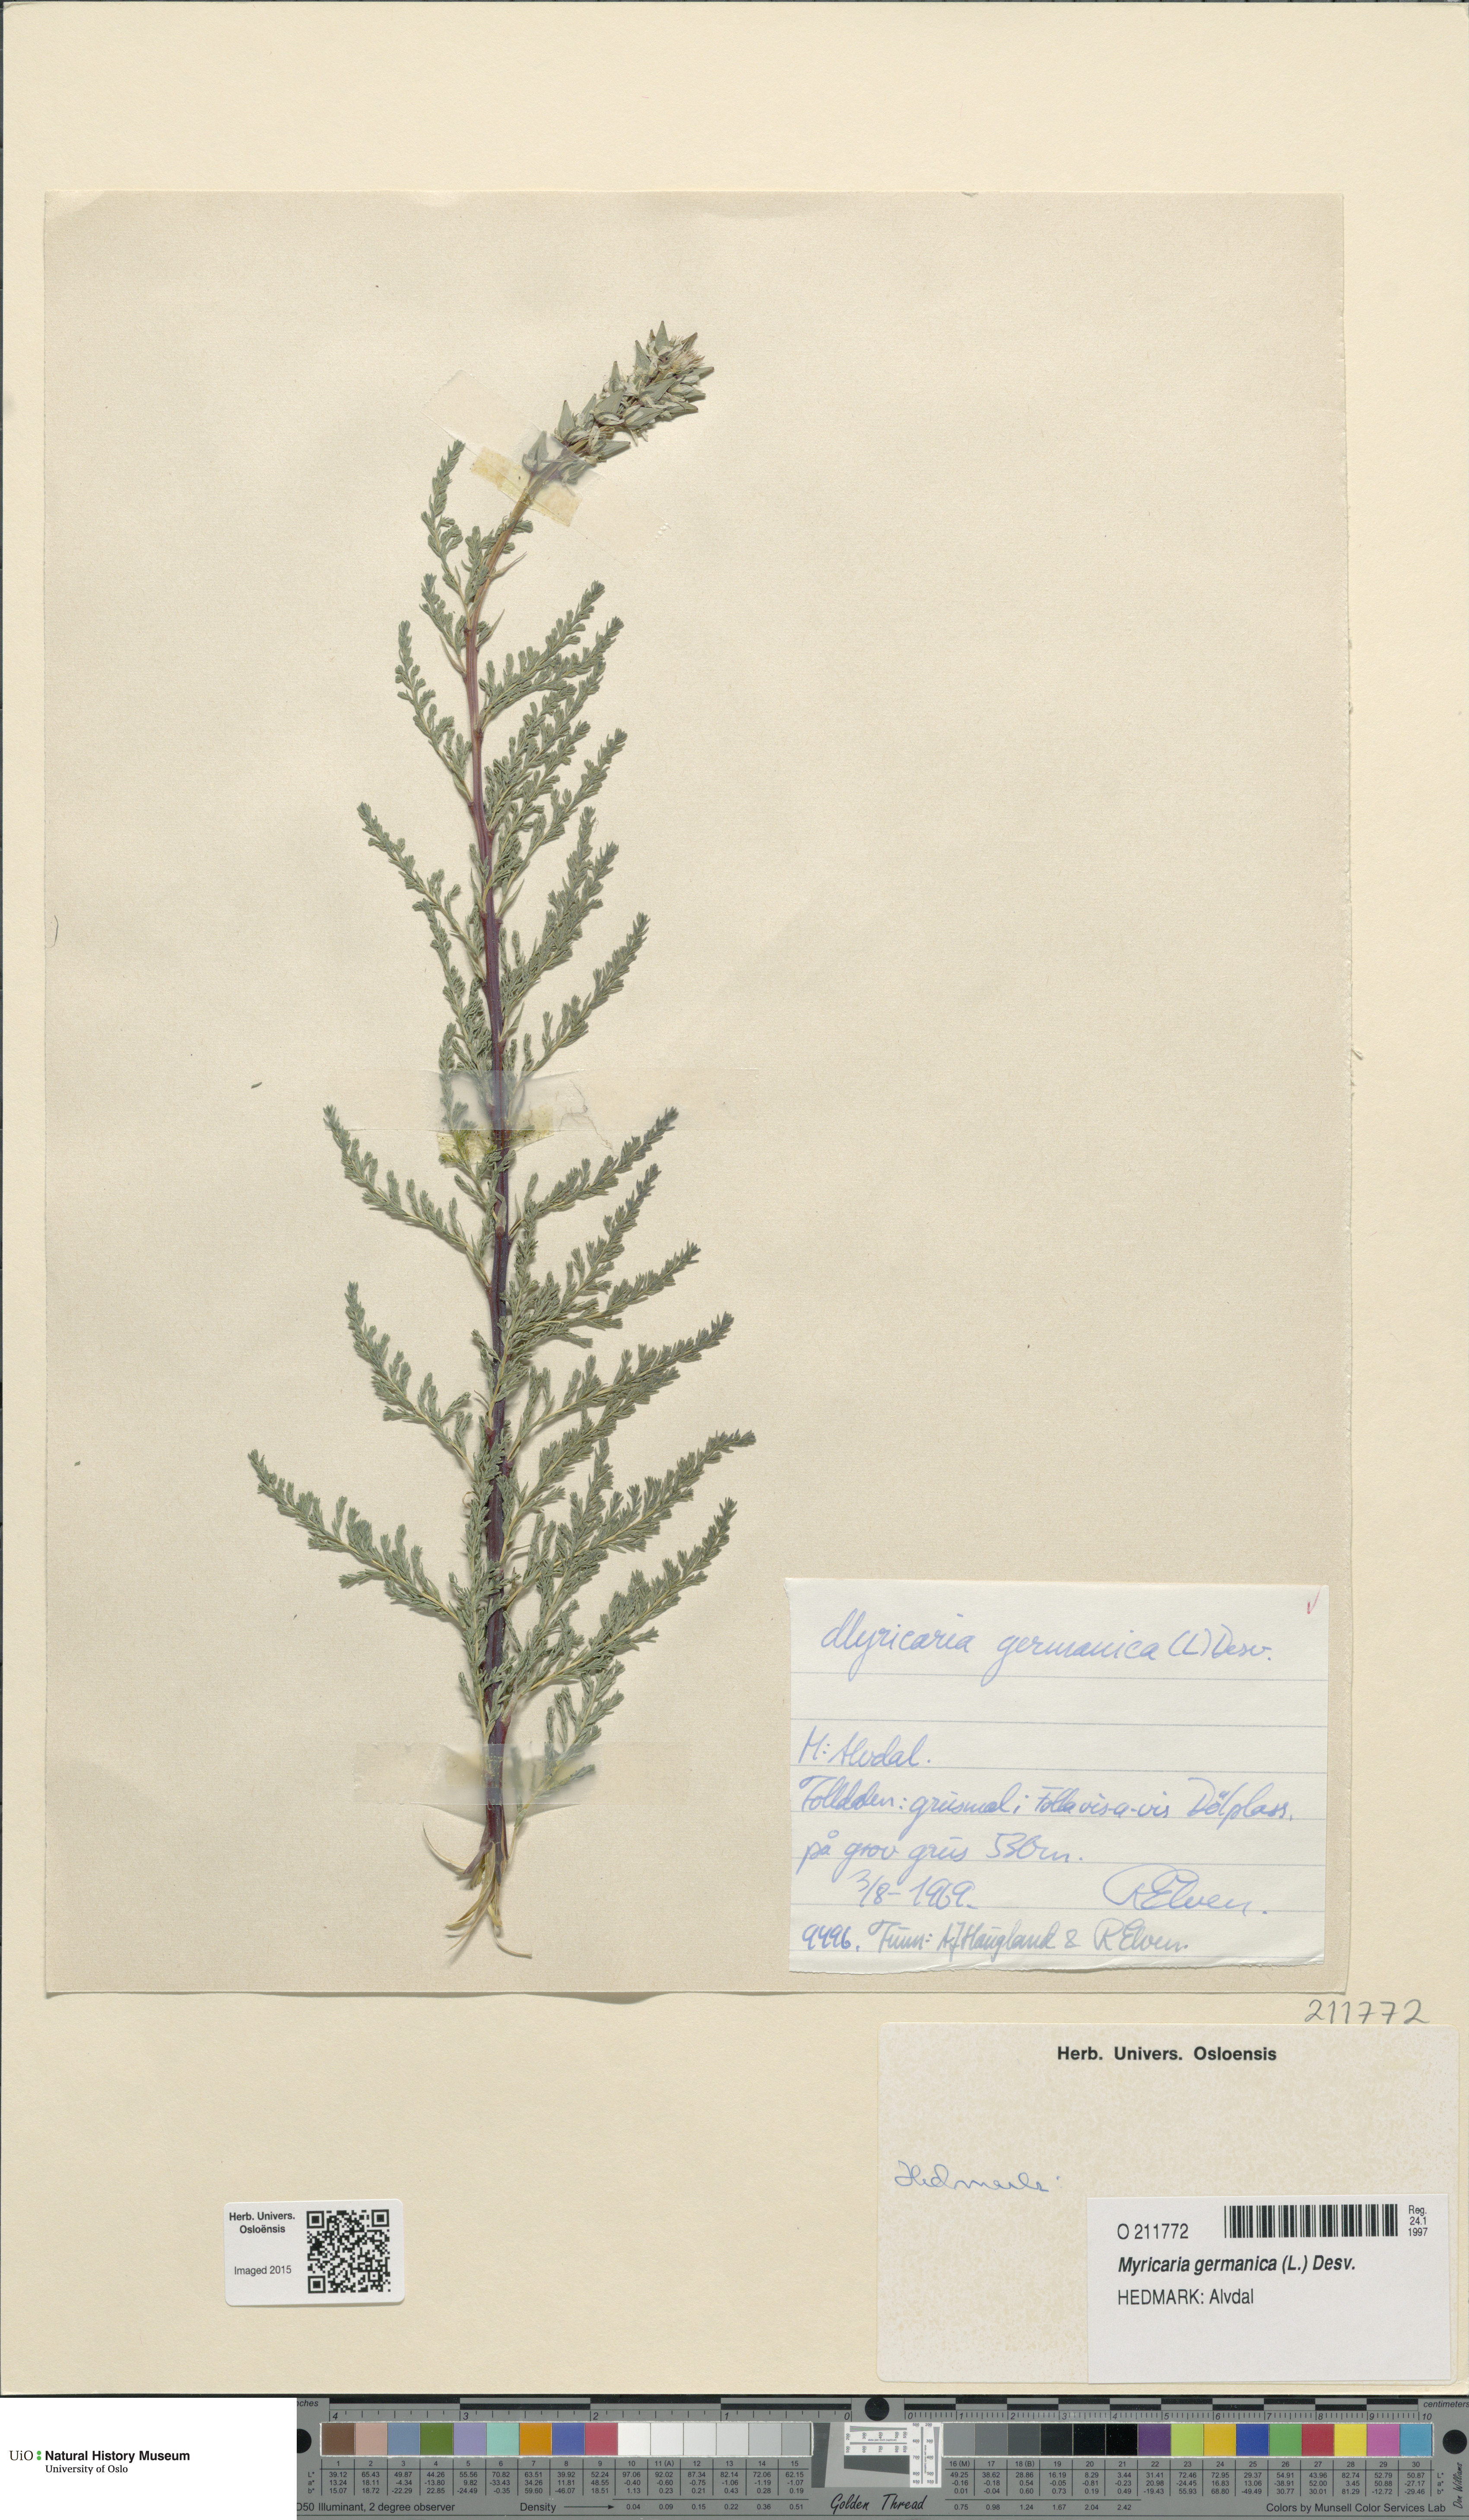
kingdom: Plantae
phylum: Tracheophyta
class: Magnoliopsida
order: Caryophyllales
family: Tamaricaceae
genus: Myricaria
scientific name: Myricaria germanica
